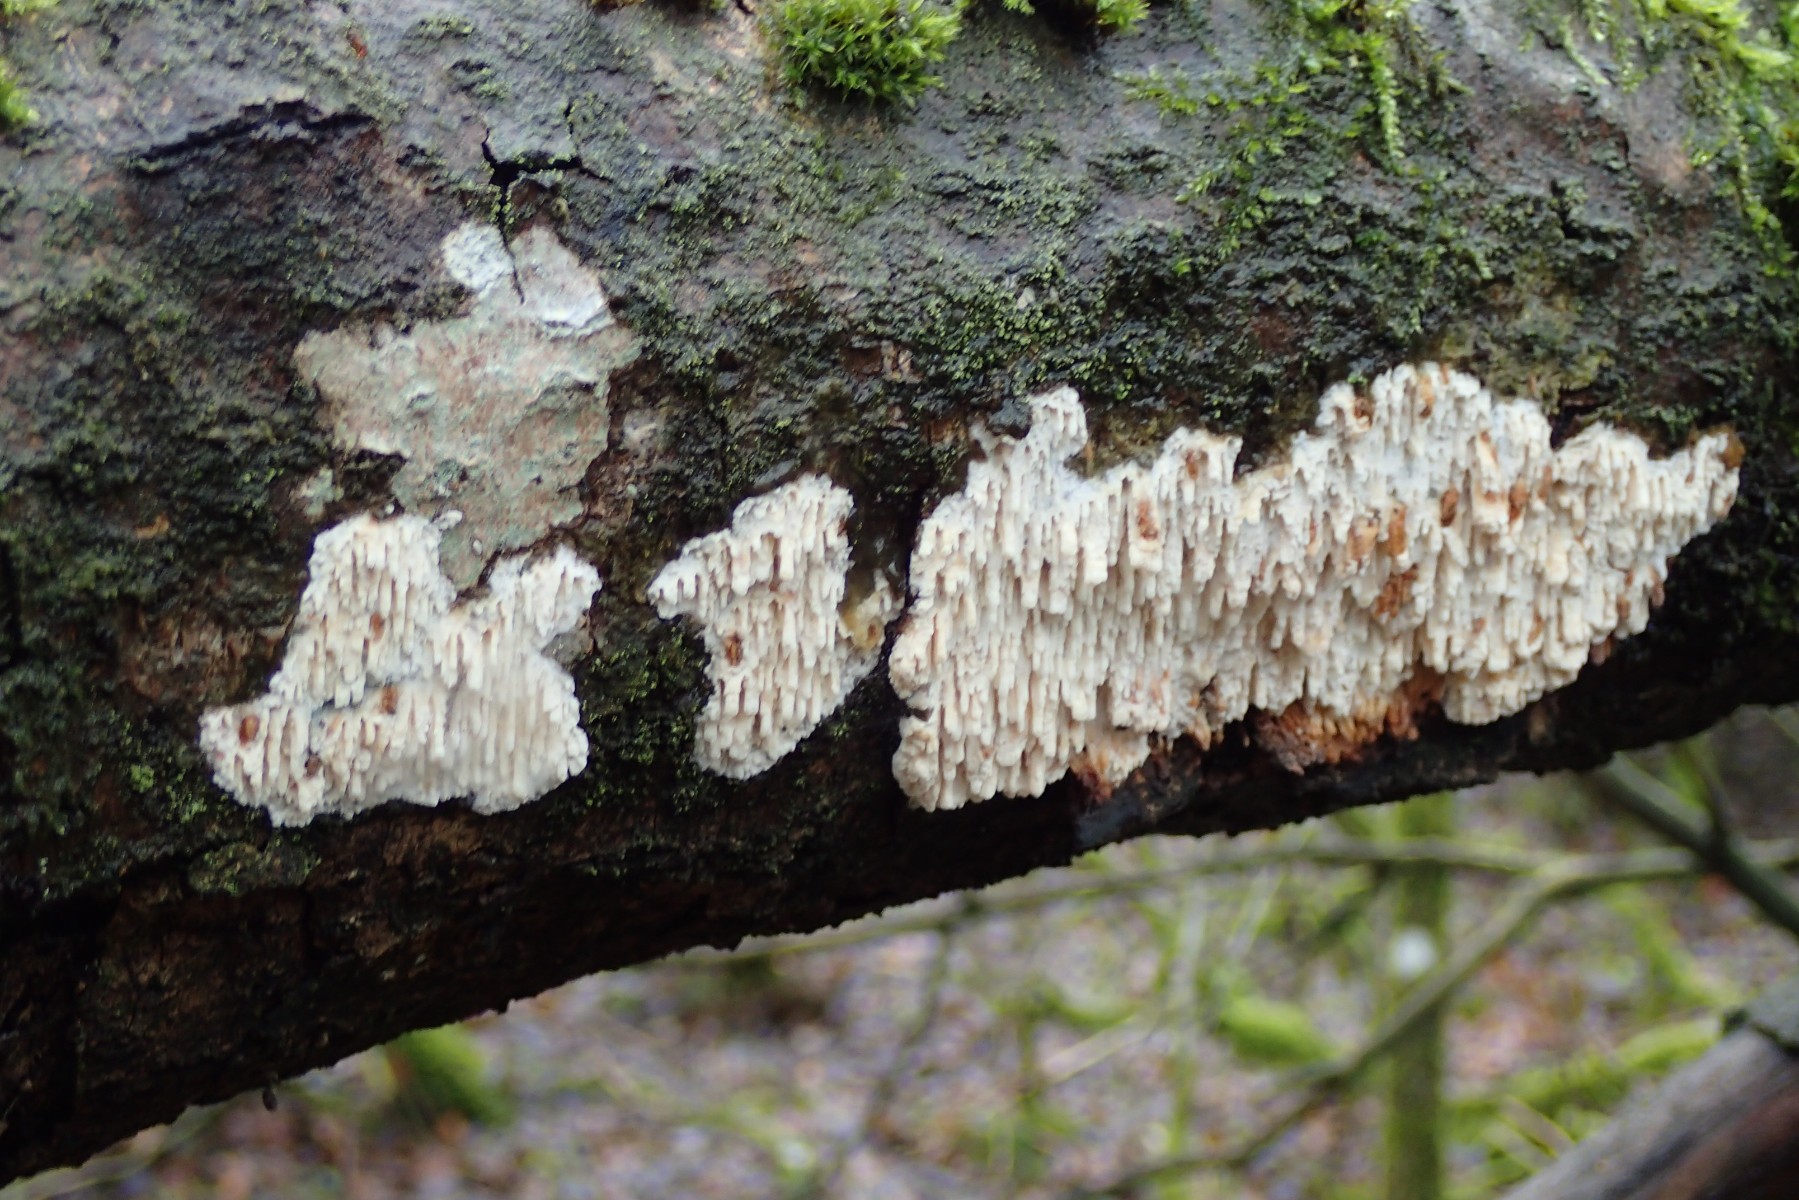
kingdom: Fungi
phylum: Basidiomycota
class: Agaricomycetes
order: Hymenochaetales
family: Schizoporaceae
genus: Xylodon
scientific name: Xylodon radula
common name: grovtandet kalkskind
